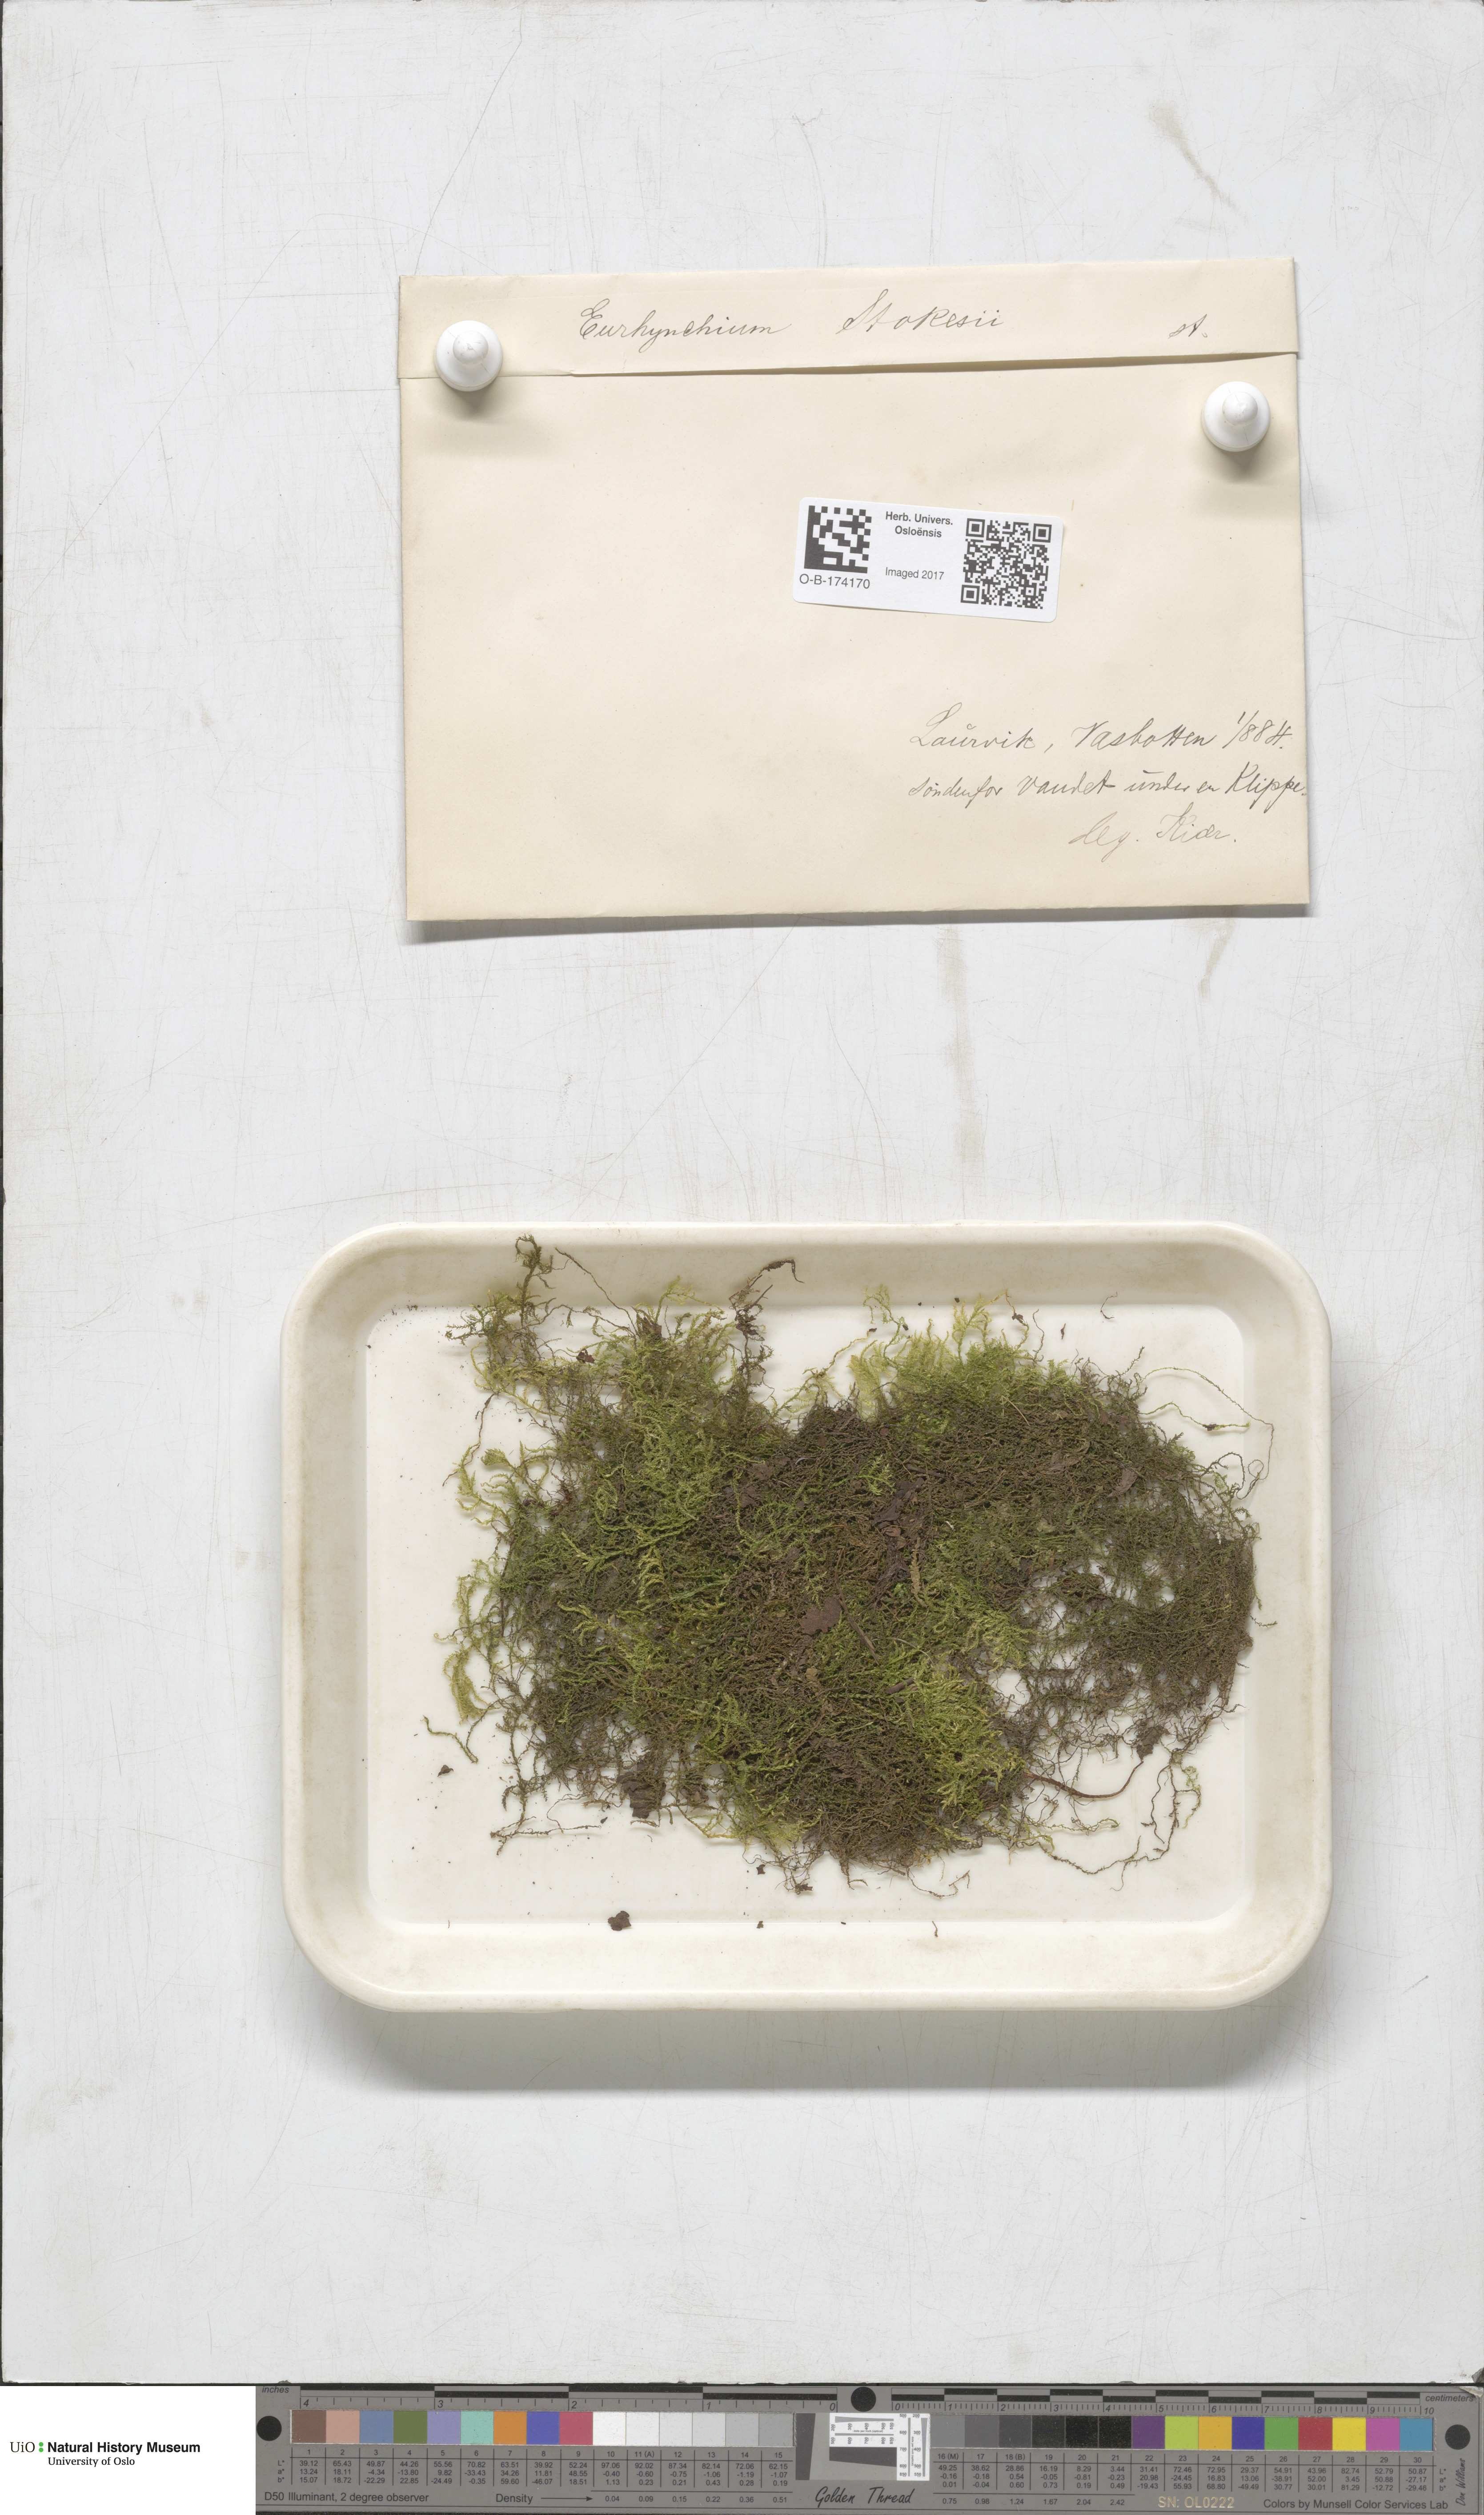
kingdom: Plantae
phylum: Bryophyta
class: Bryopsida
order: Hypnales
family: Brachytheciaceae
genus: Kindbergia
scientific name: Kindbergia praelonga
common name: Slender beaked moss
